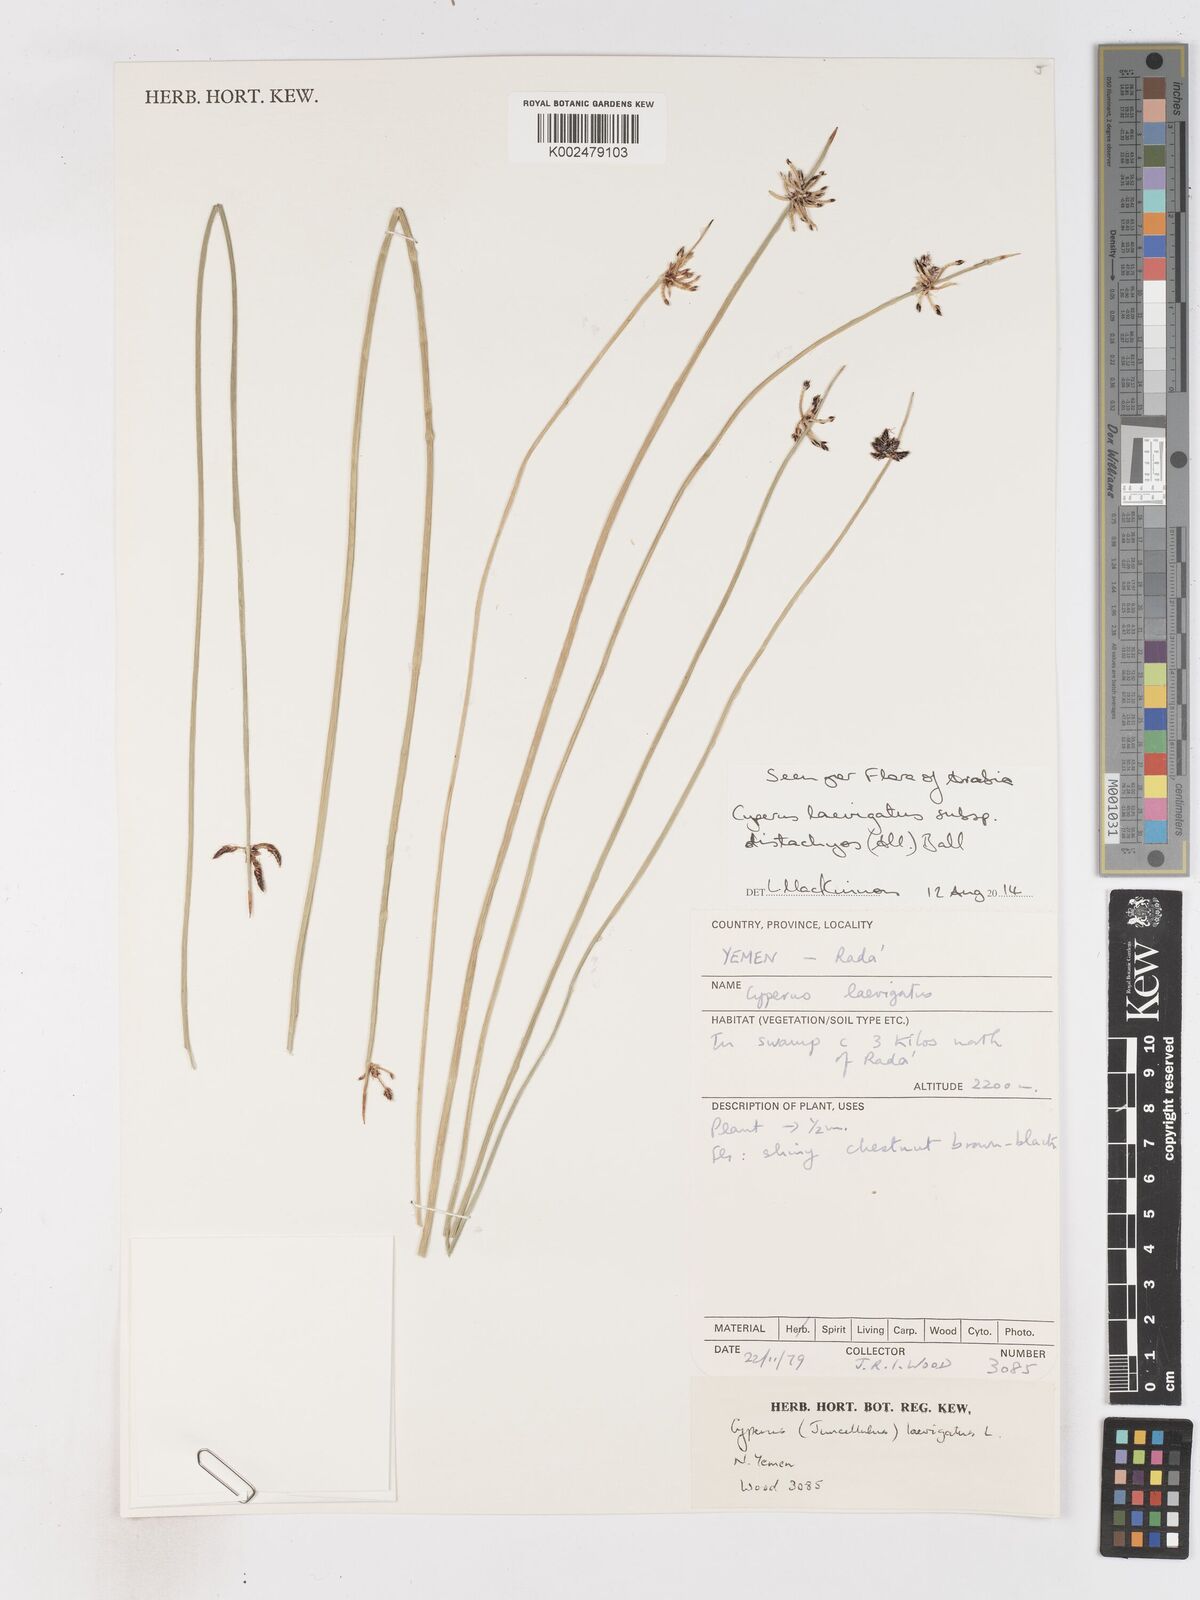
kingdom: Plantae
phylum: Tracheophyta
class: Liliopsida
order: Poales
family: Cyperaceae
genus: Cyperus
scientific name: Cyperus laevigatus
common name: Smooth flat sedge
